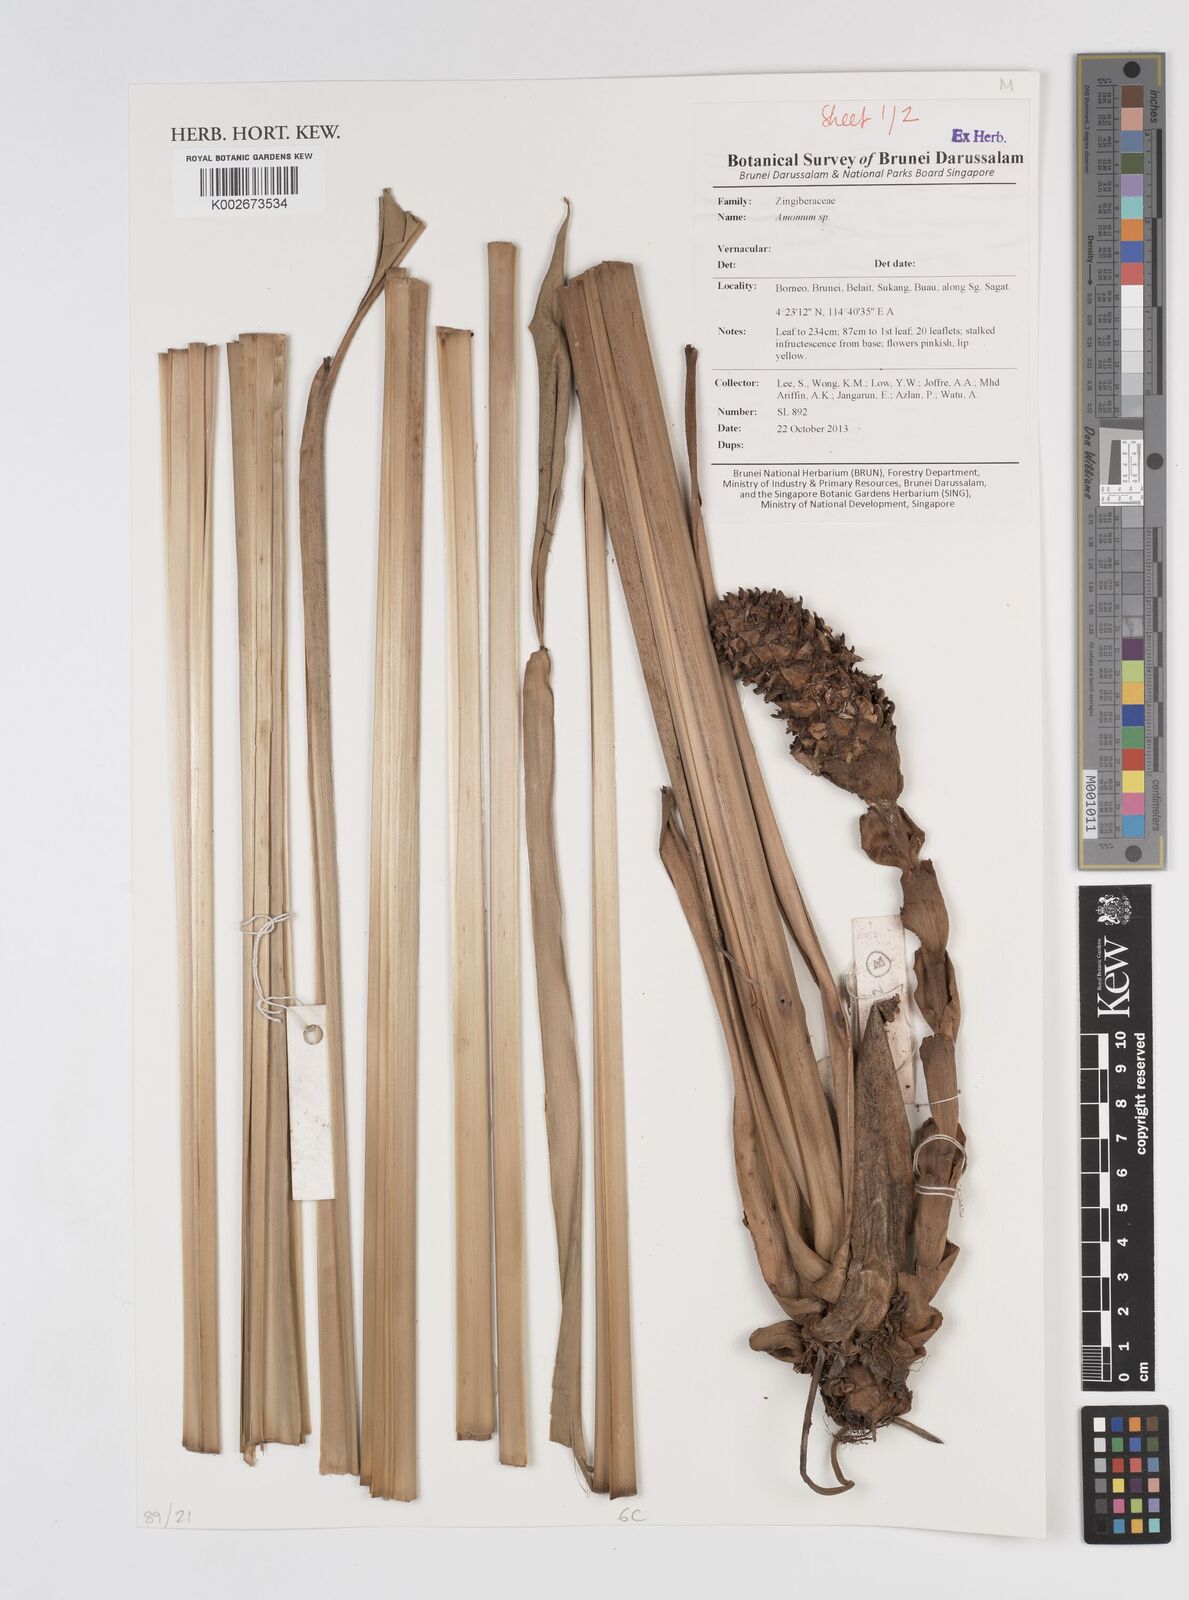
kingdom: Plantae
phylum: Tracheophyta
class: Liliopsida
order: Zingiberales
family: Zingiberaceae
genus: Amomum
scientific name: Amomum
